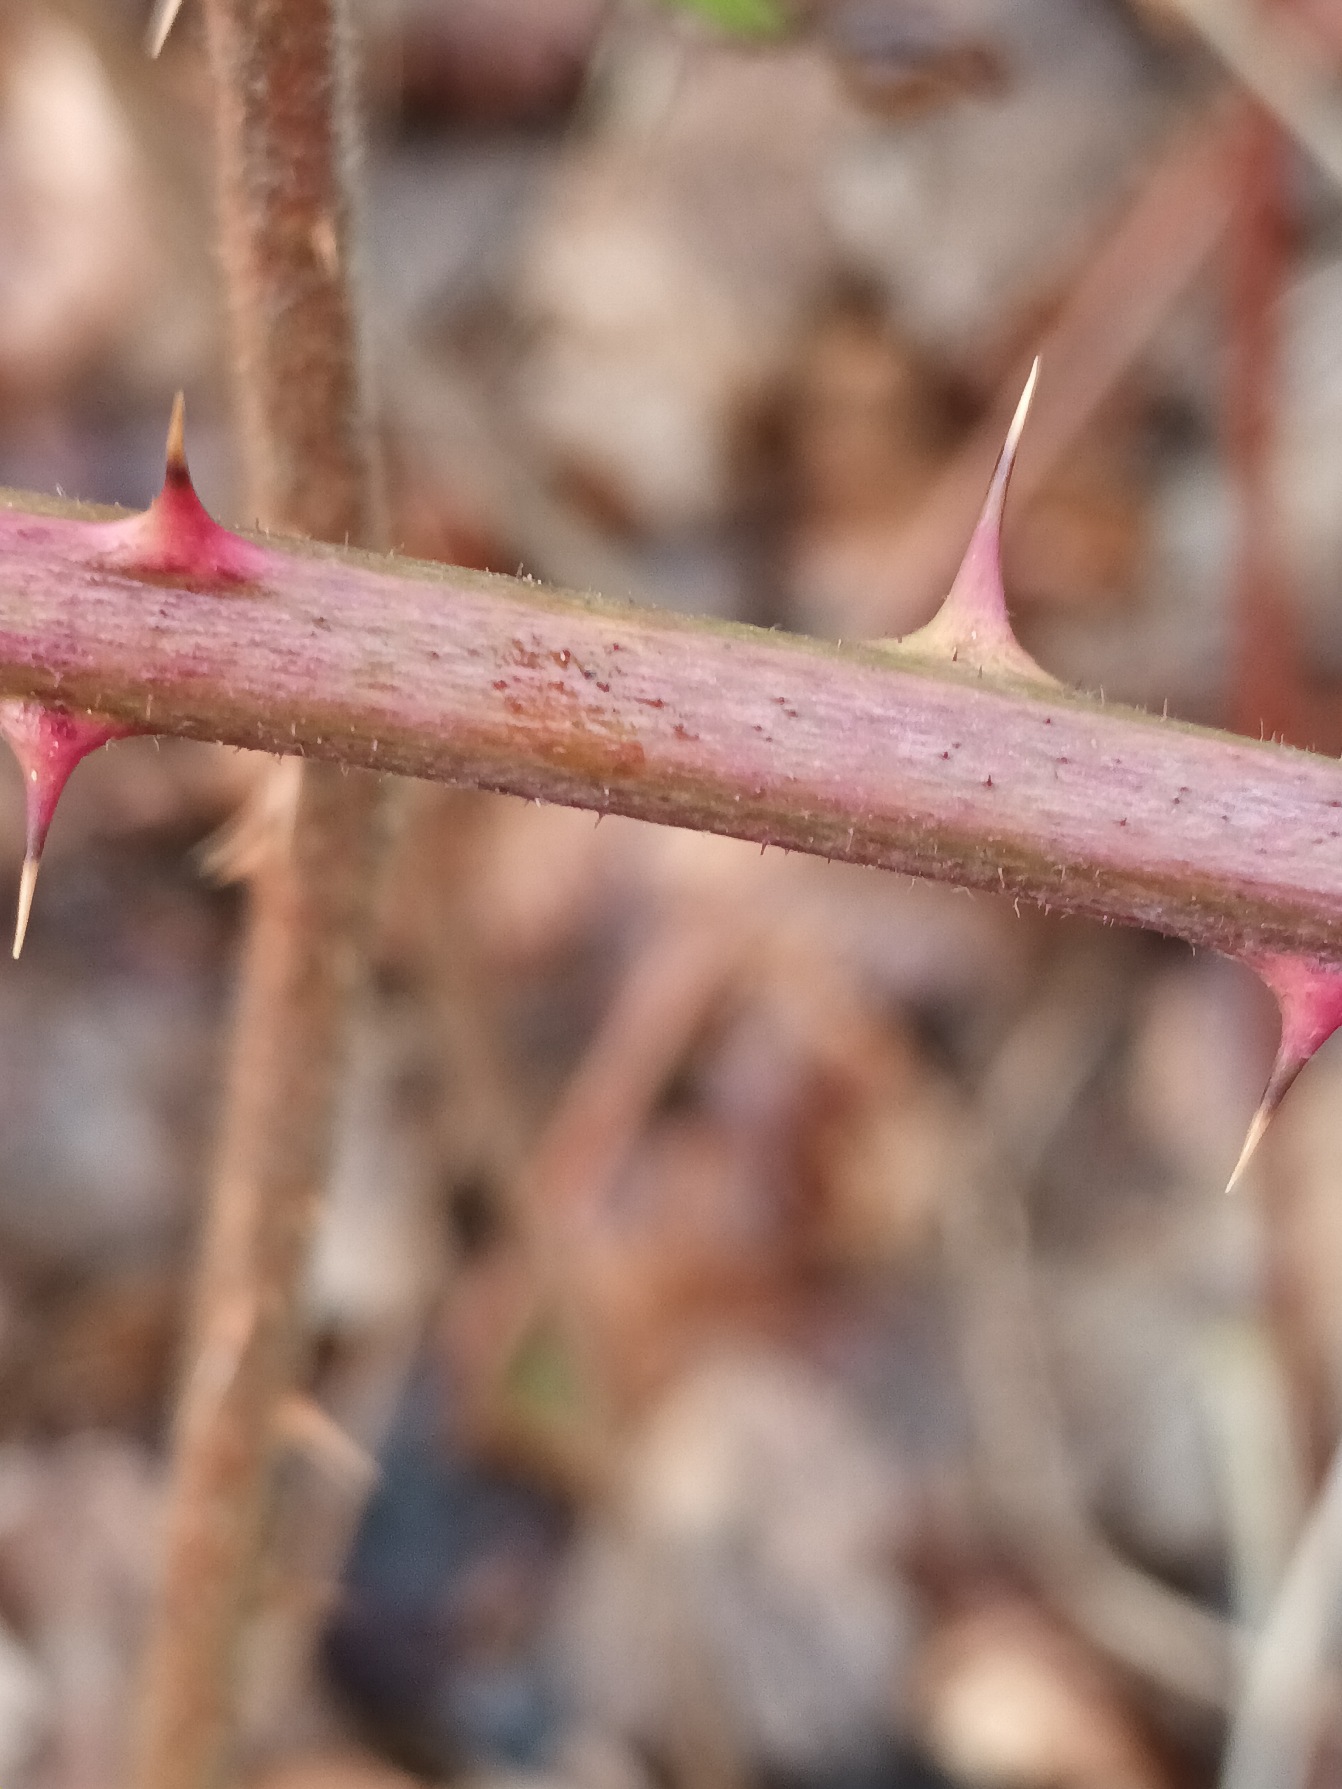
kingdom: Plantae
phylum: Tracheophyta
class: Magnoliopsida
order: Rosales
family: Rosaceae
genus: Rubus
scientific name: Rubus radula
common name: Rasperu brombær
